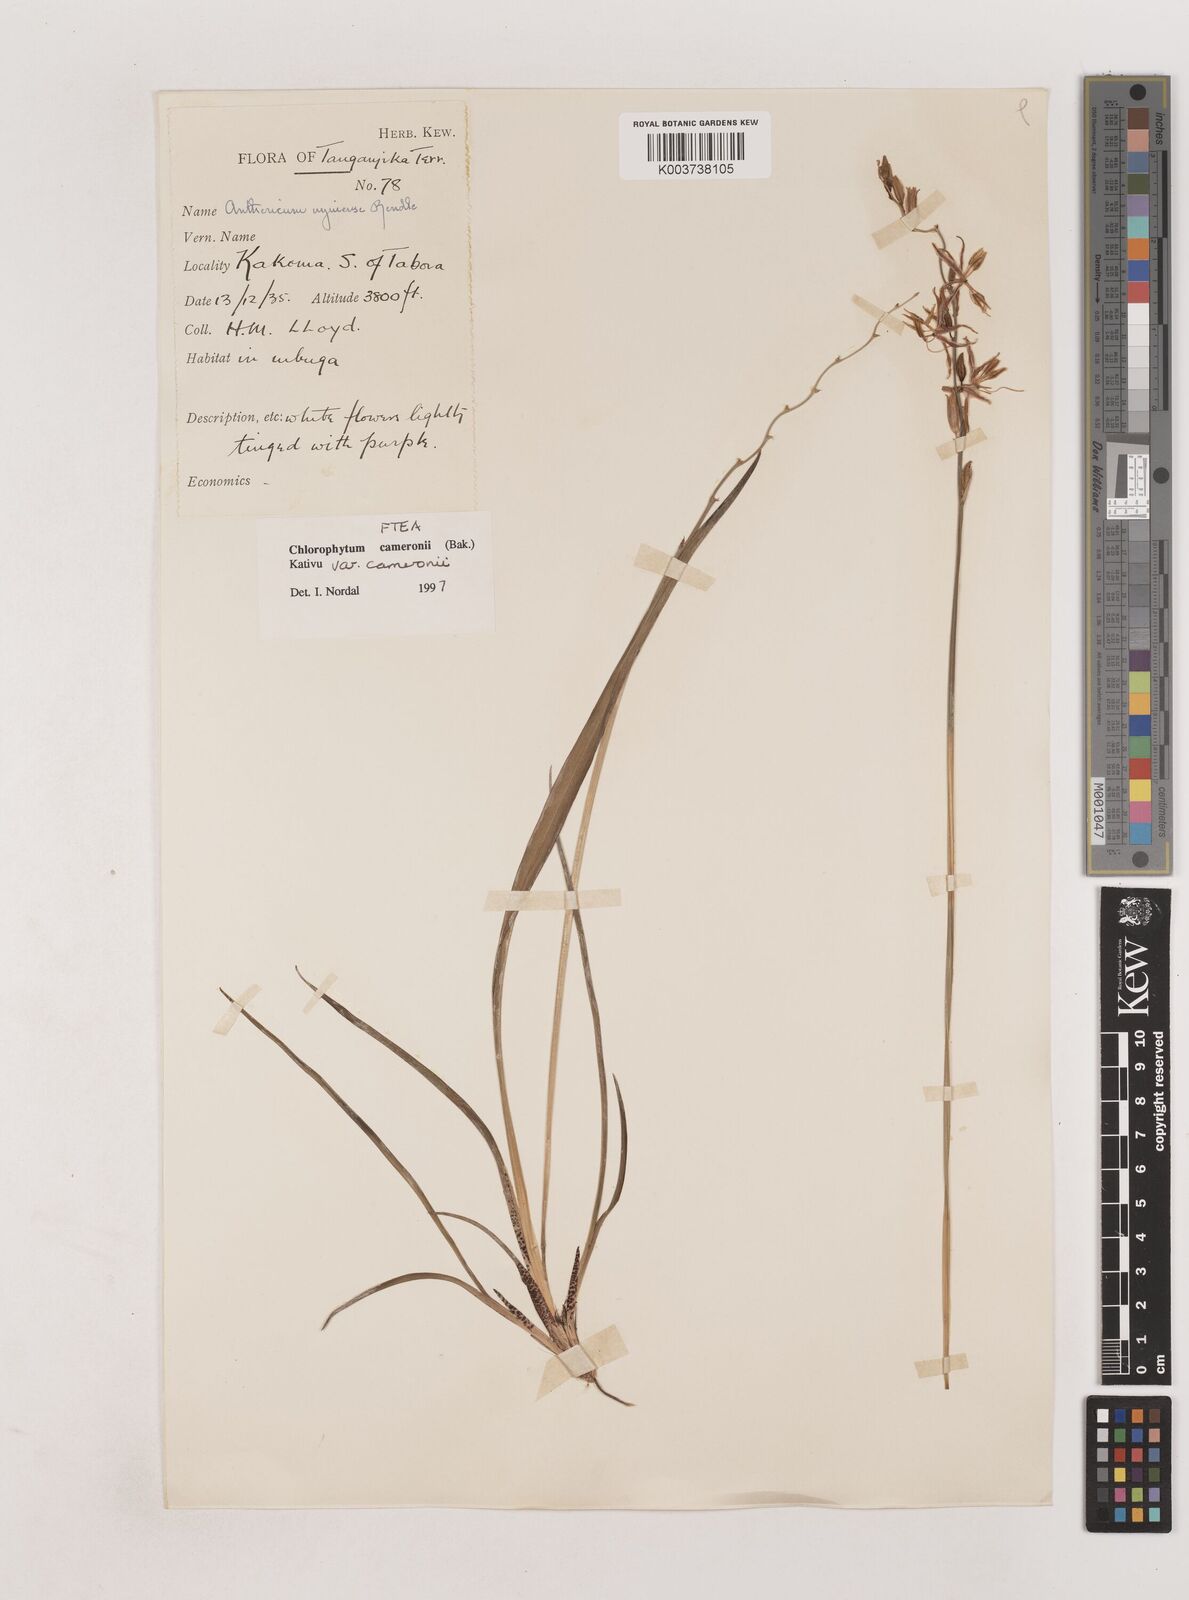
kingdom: Plantae
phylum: Tracheophyta
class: Liliopsida
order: Asparagales
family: Asparagaceae
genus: Chlorophytum
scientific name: Chlorophytum cameronii
